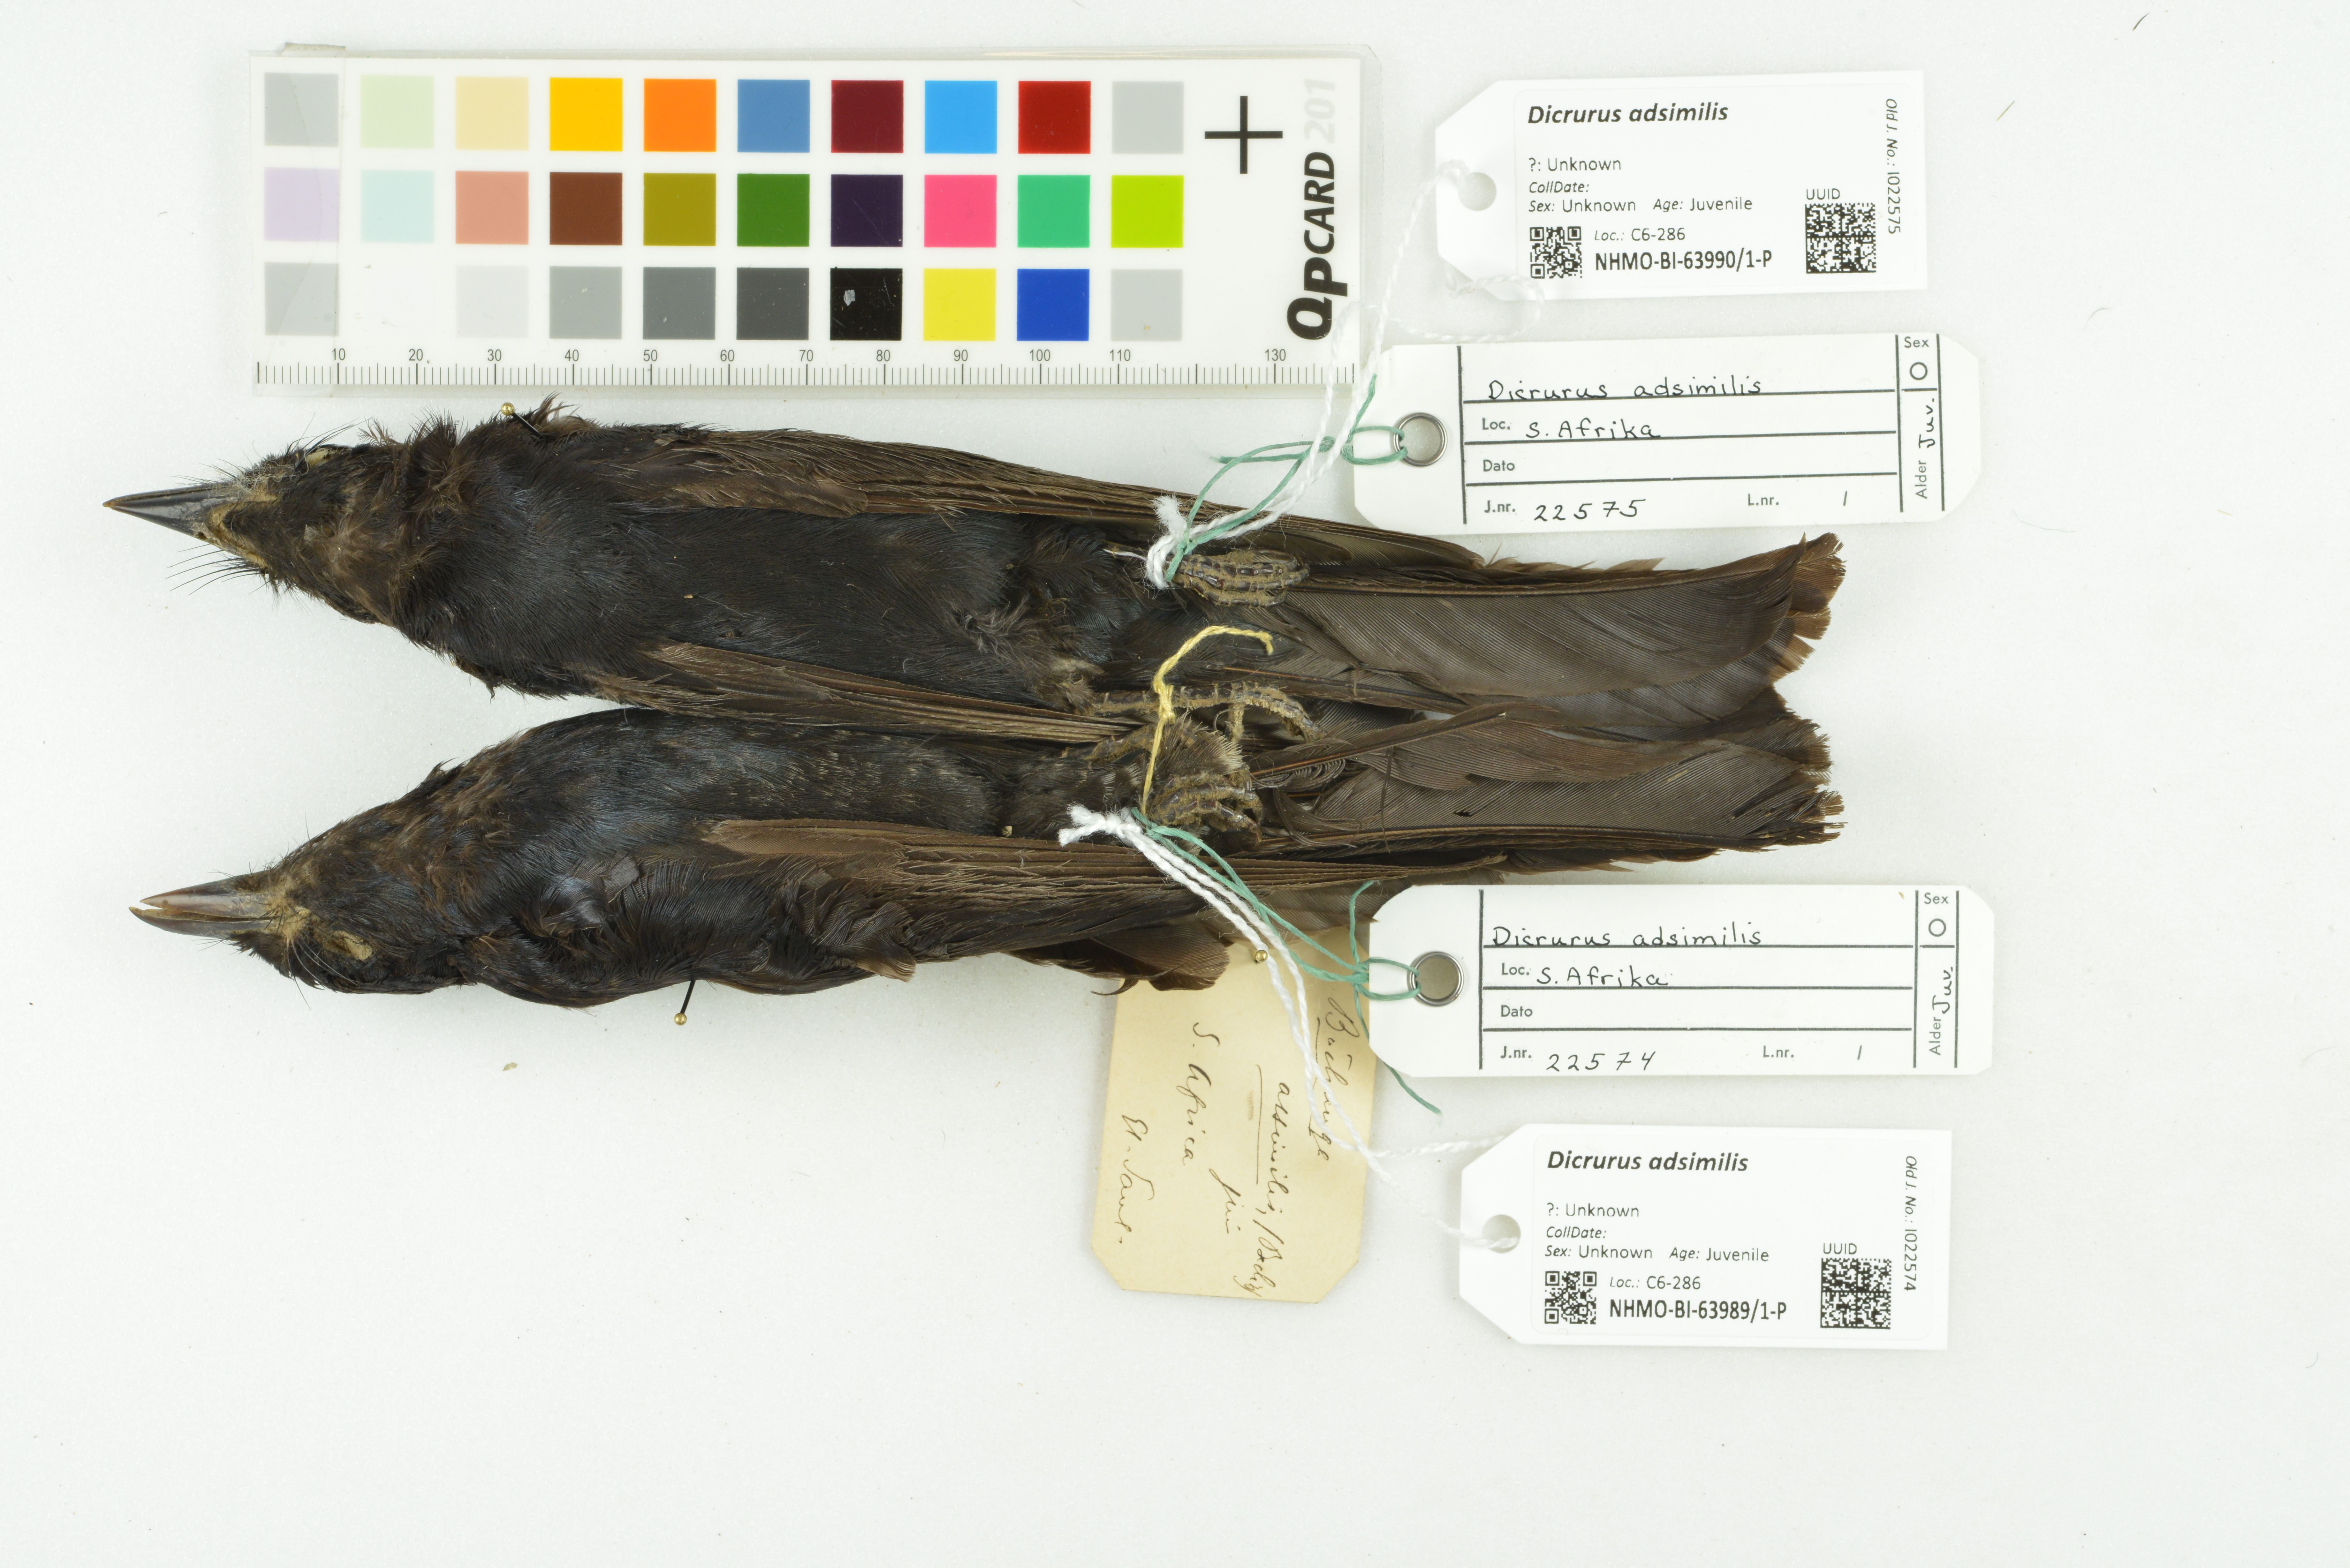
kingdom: Animalia
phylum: Chordata
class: Aves
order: Passeriformes
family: Dicruridae
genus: Dicrurus
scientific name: Dicrurus adsimilis
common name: Fork-tailed drongo
